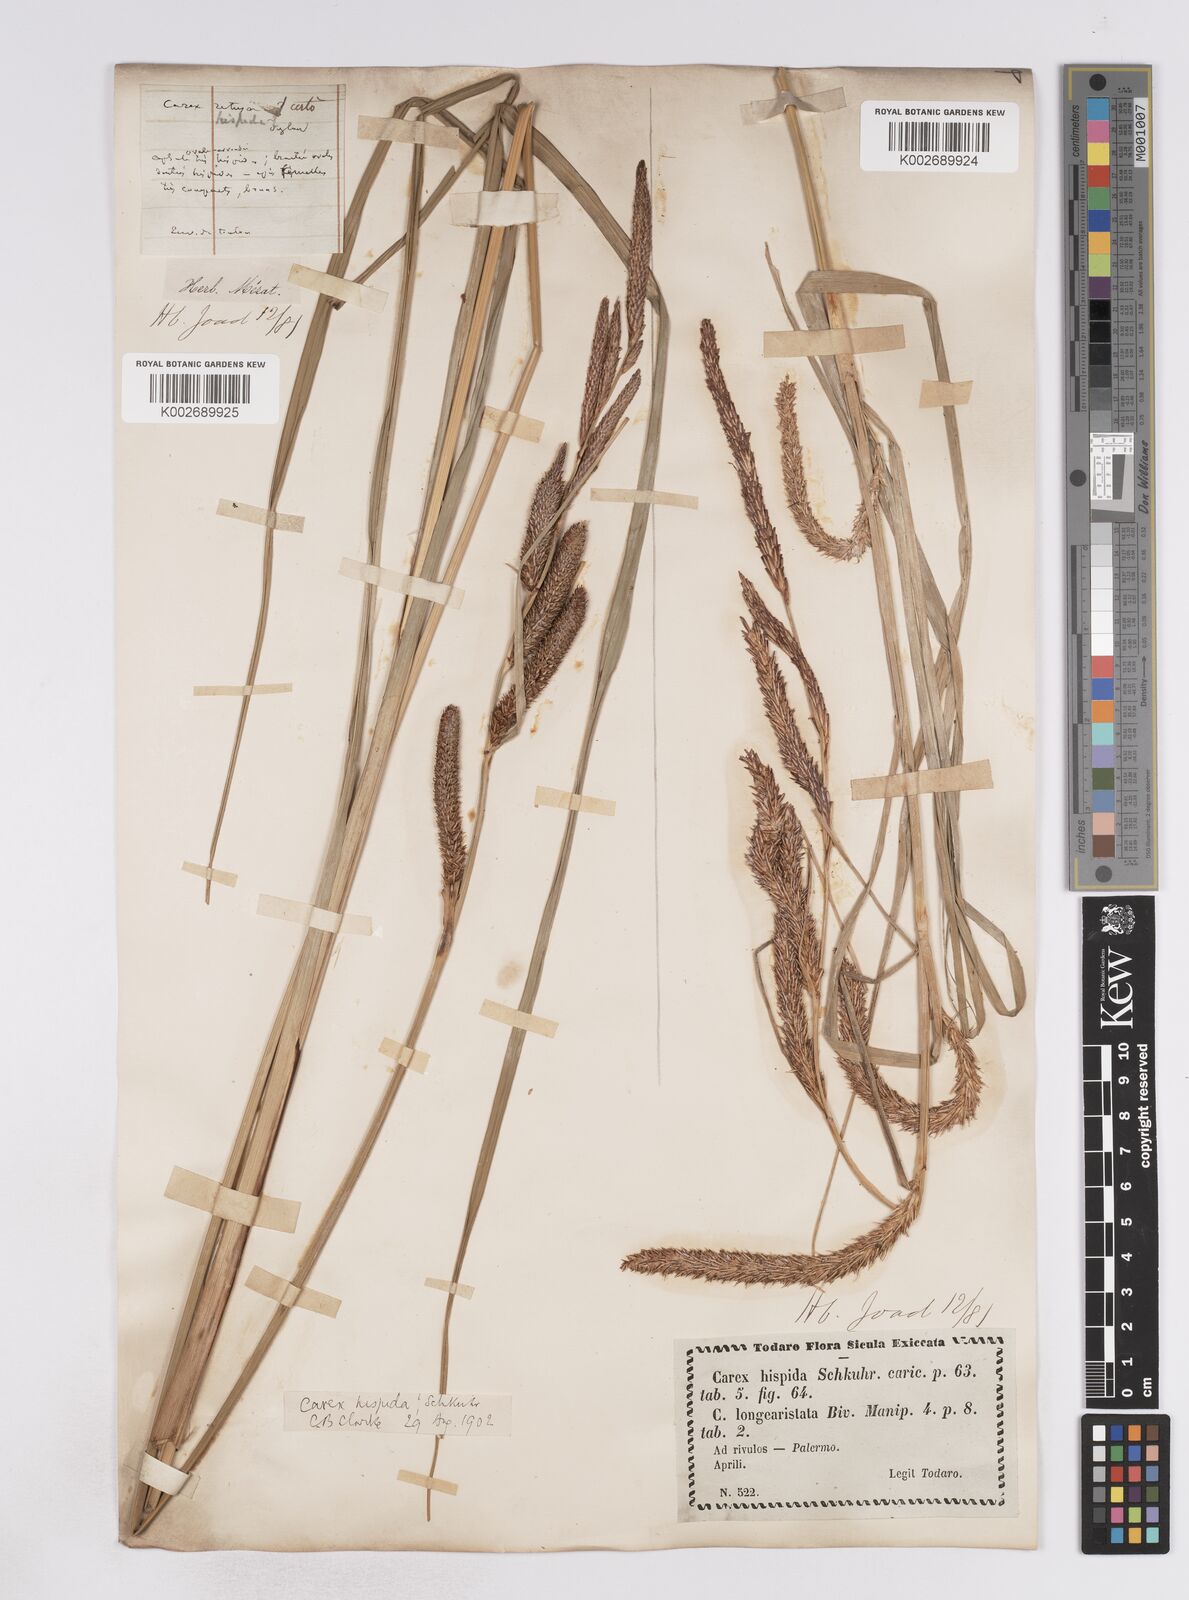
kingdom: Plantae
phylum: Tracheophyta
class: Liliopsida
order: Poales
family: Cyperaceae
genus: Carex
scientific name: Carex hispida
